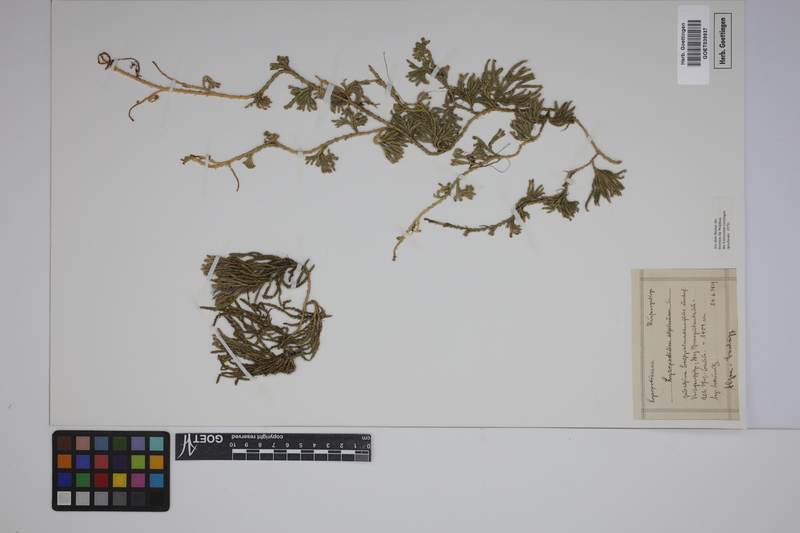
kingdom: Plantae
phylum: Tracheophyta
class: Lycopodiopsida
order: Lycopodiales
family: Lycopodiaceae
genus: Diphasiastrum
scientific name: Diphasiastrum alpinum
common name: Alpine clubmoss
